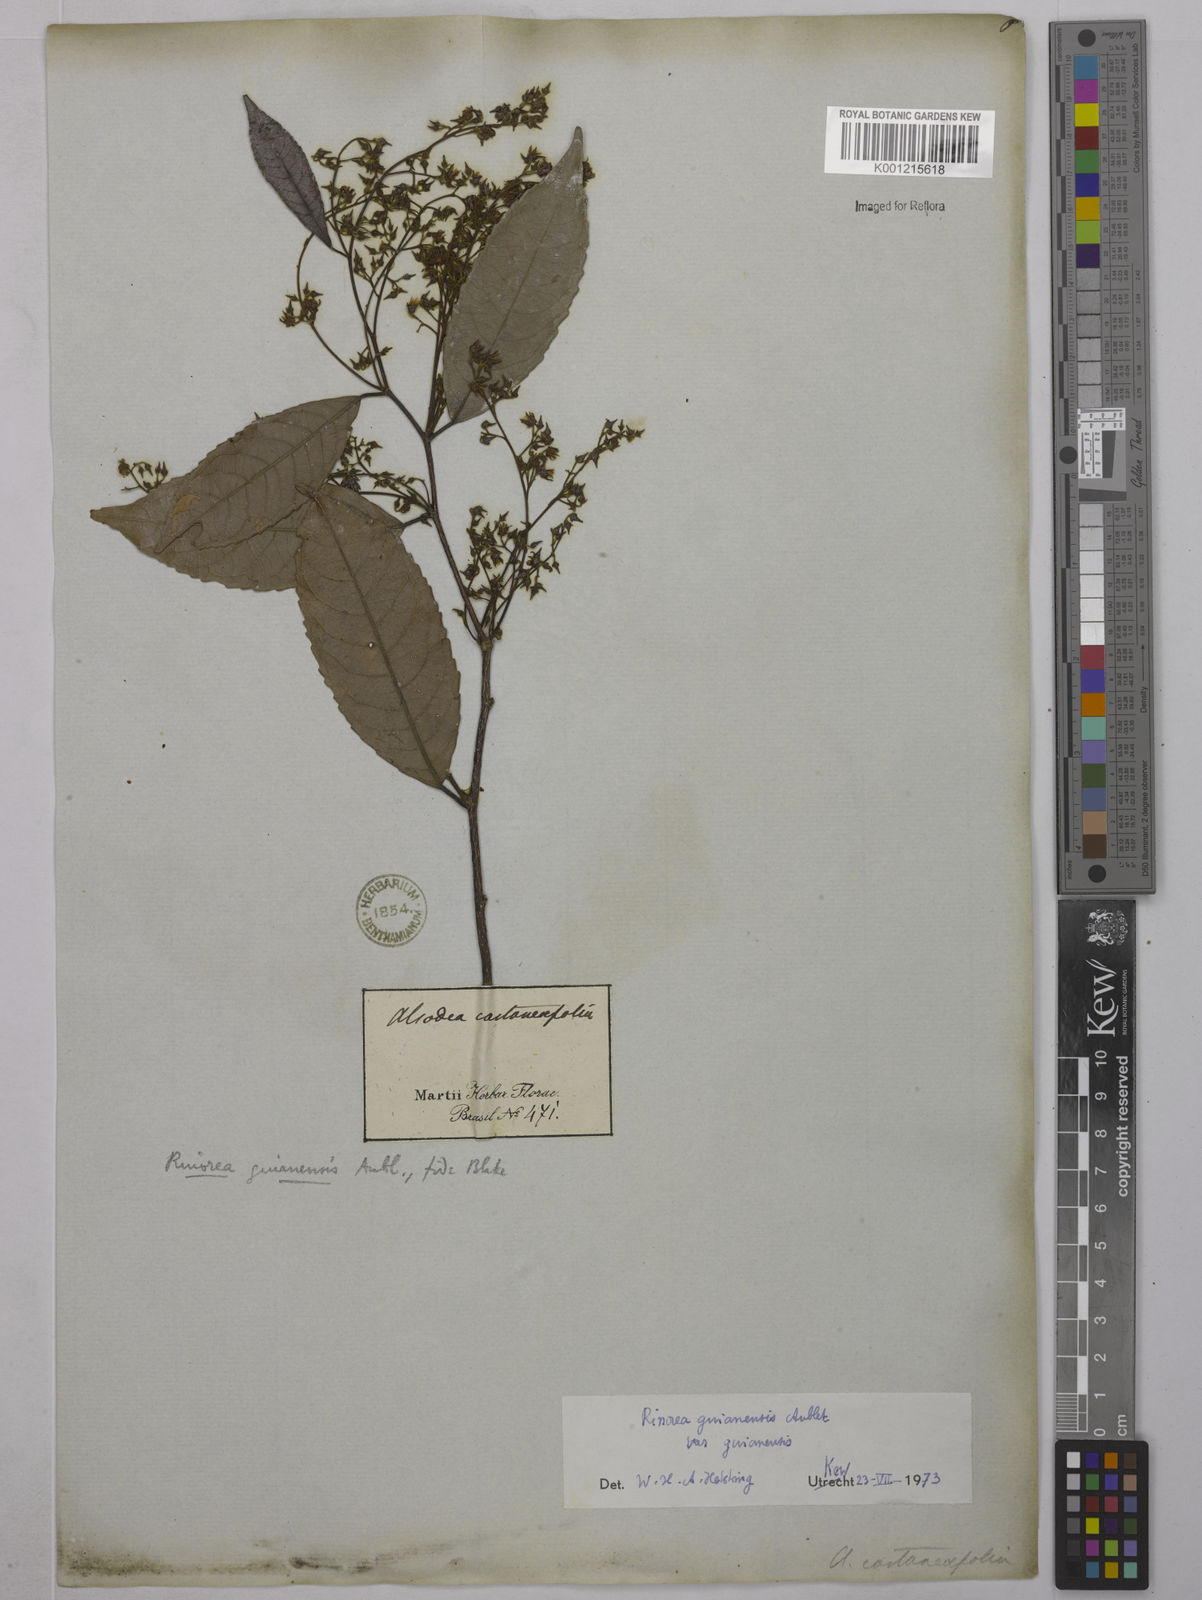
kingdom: Plantae
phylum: Tracheophyta
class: Magnoliopsida
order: Malpighiales
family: Violaceae
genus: Rinorea
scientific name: Rinorea guianensis
